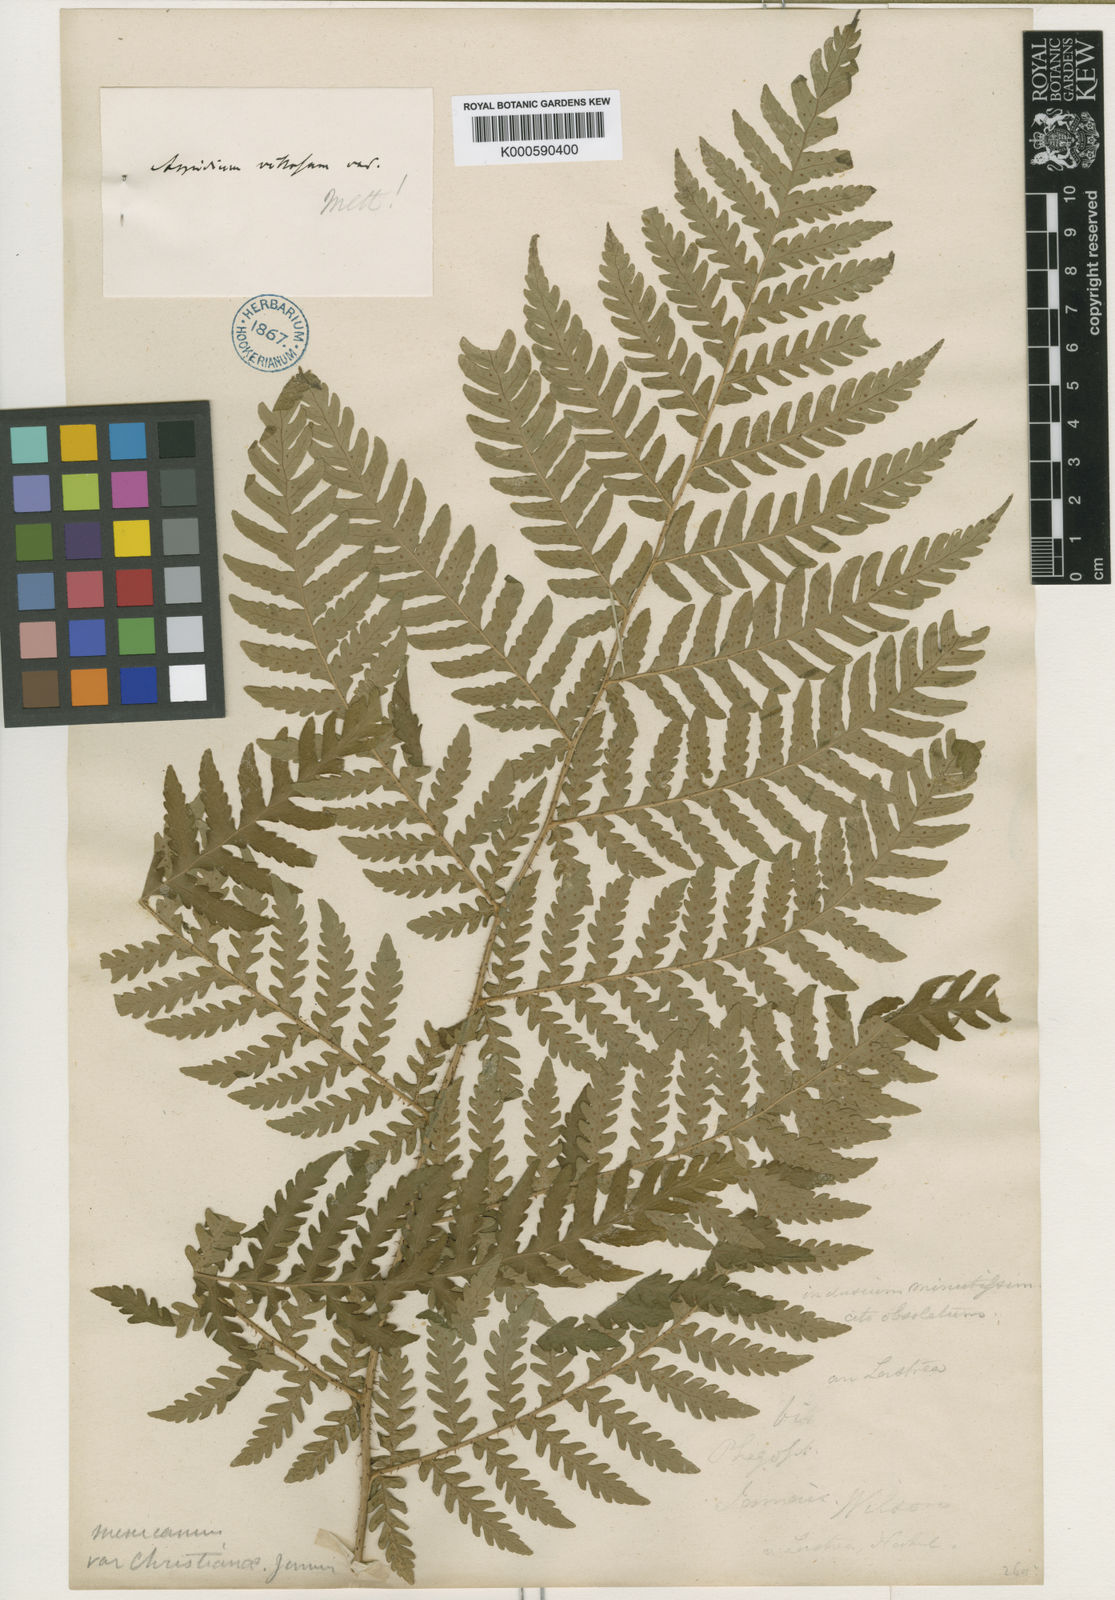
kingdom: Plantae
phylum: Tracheophyta
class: Polypodiopsida
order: Polypodiales
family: Dryopteridaceae
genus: Polystichum
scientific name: Polystichum heterolepis
